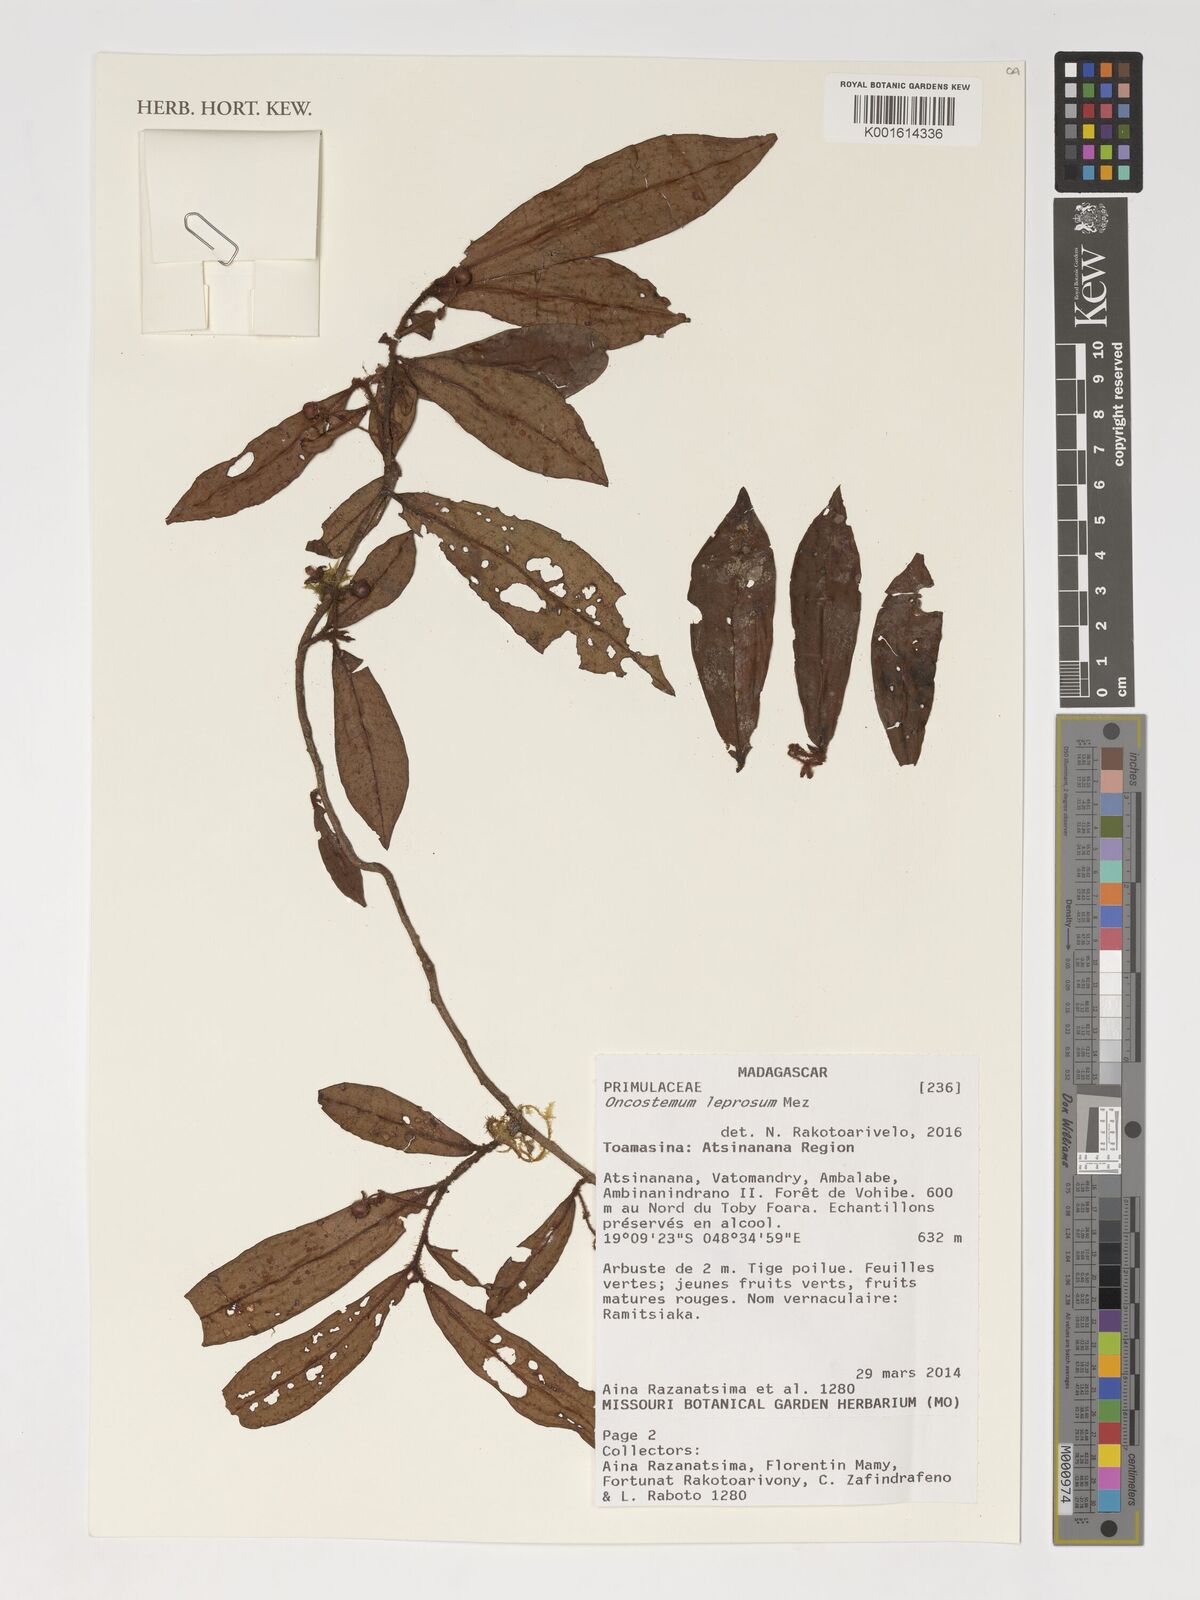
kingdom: Plantae
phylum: Tracheophyta
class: Magnoliopsida
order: Ericales
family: Primulaceae
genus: Oncostemum
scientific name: Oncostemum leprosum
